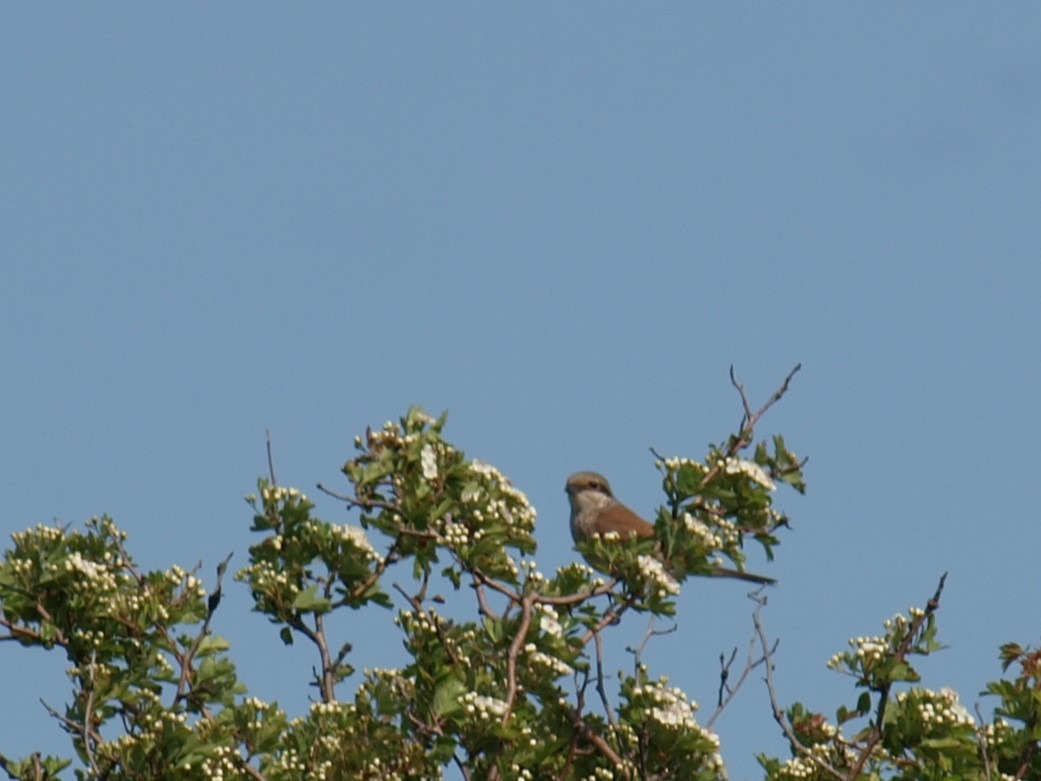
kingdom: Animalia
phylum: Chordata
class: Aves
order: Passeriformes
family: Laniidae
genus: Lanius
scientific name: Lanius collurio
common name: Rødrygget tornskade
